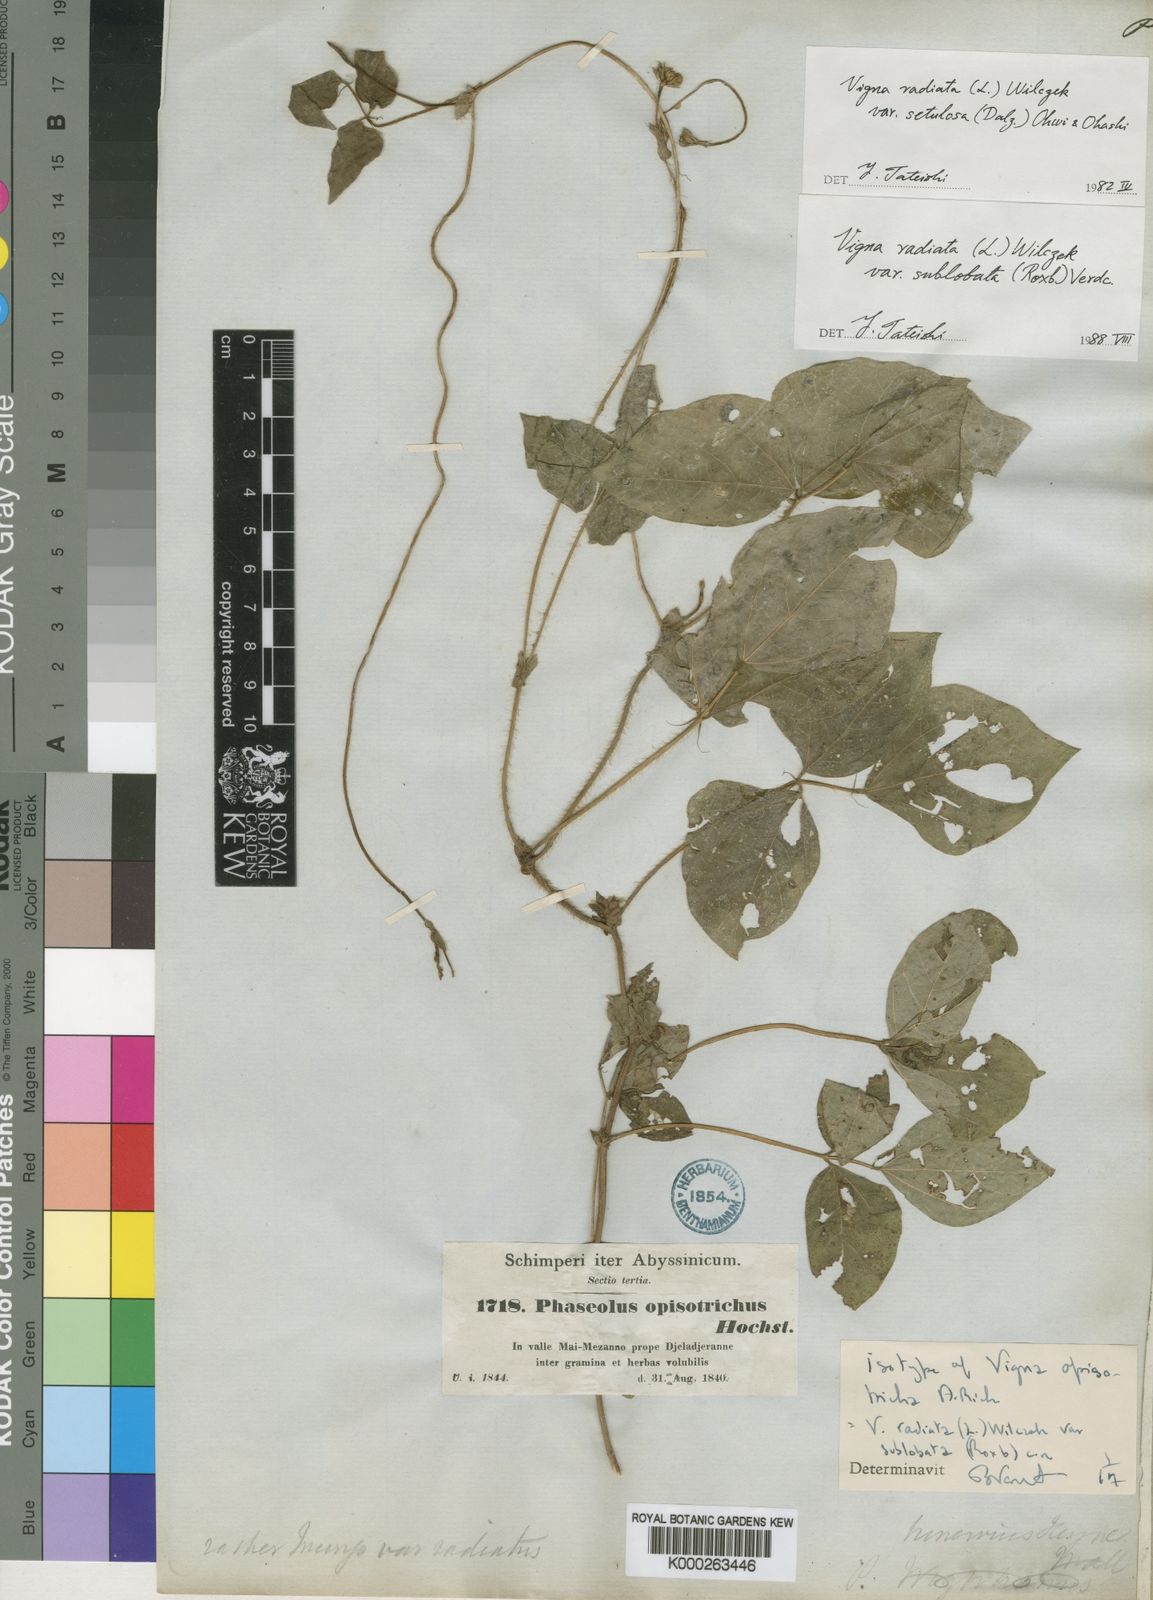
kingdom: Plantae
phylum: Tracheophyta
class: Magnoliopsida
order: Fabales
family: Fabaceae
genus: Vigna
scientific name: Vigna
